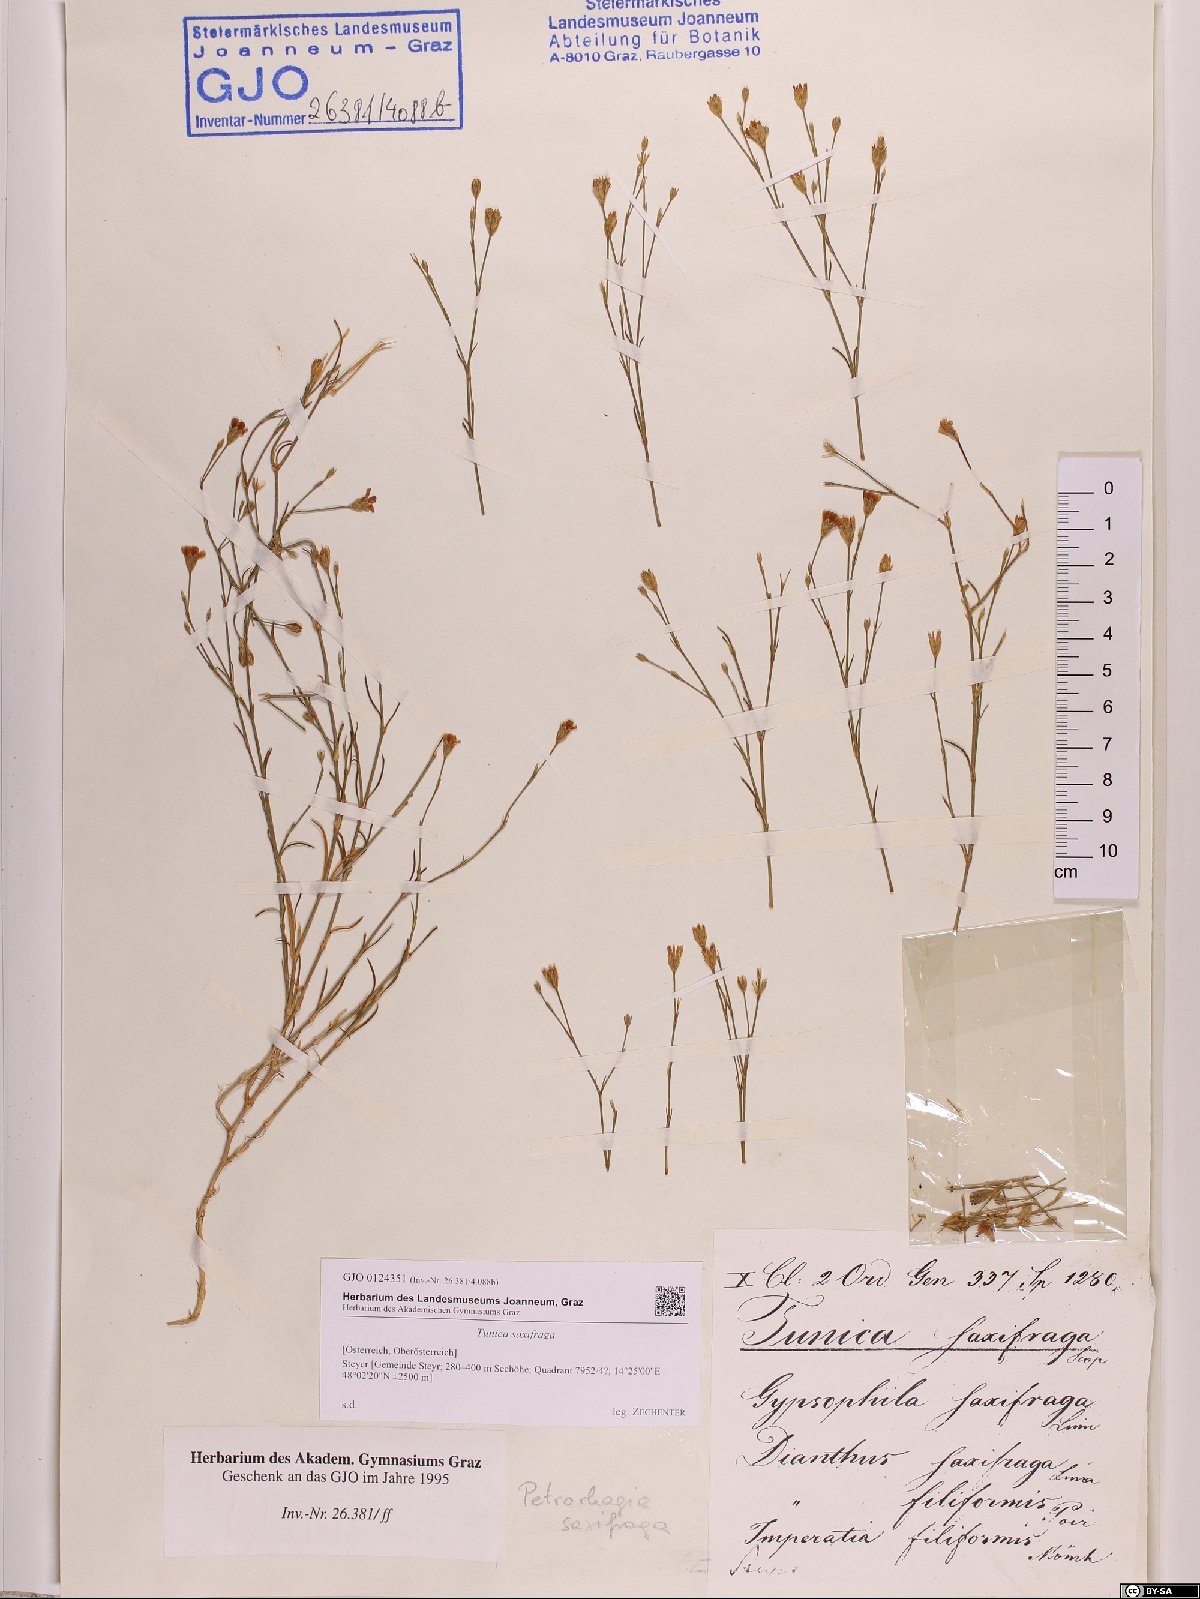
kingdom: Plantae
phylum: Tracheophyta
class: Magnoliopsida
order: Caryophyllales
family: Caryophyllaceae
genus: Petrorhagia
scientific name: Petrorhagia saxifraga
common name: Tunicflower
